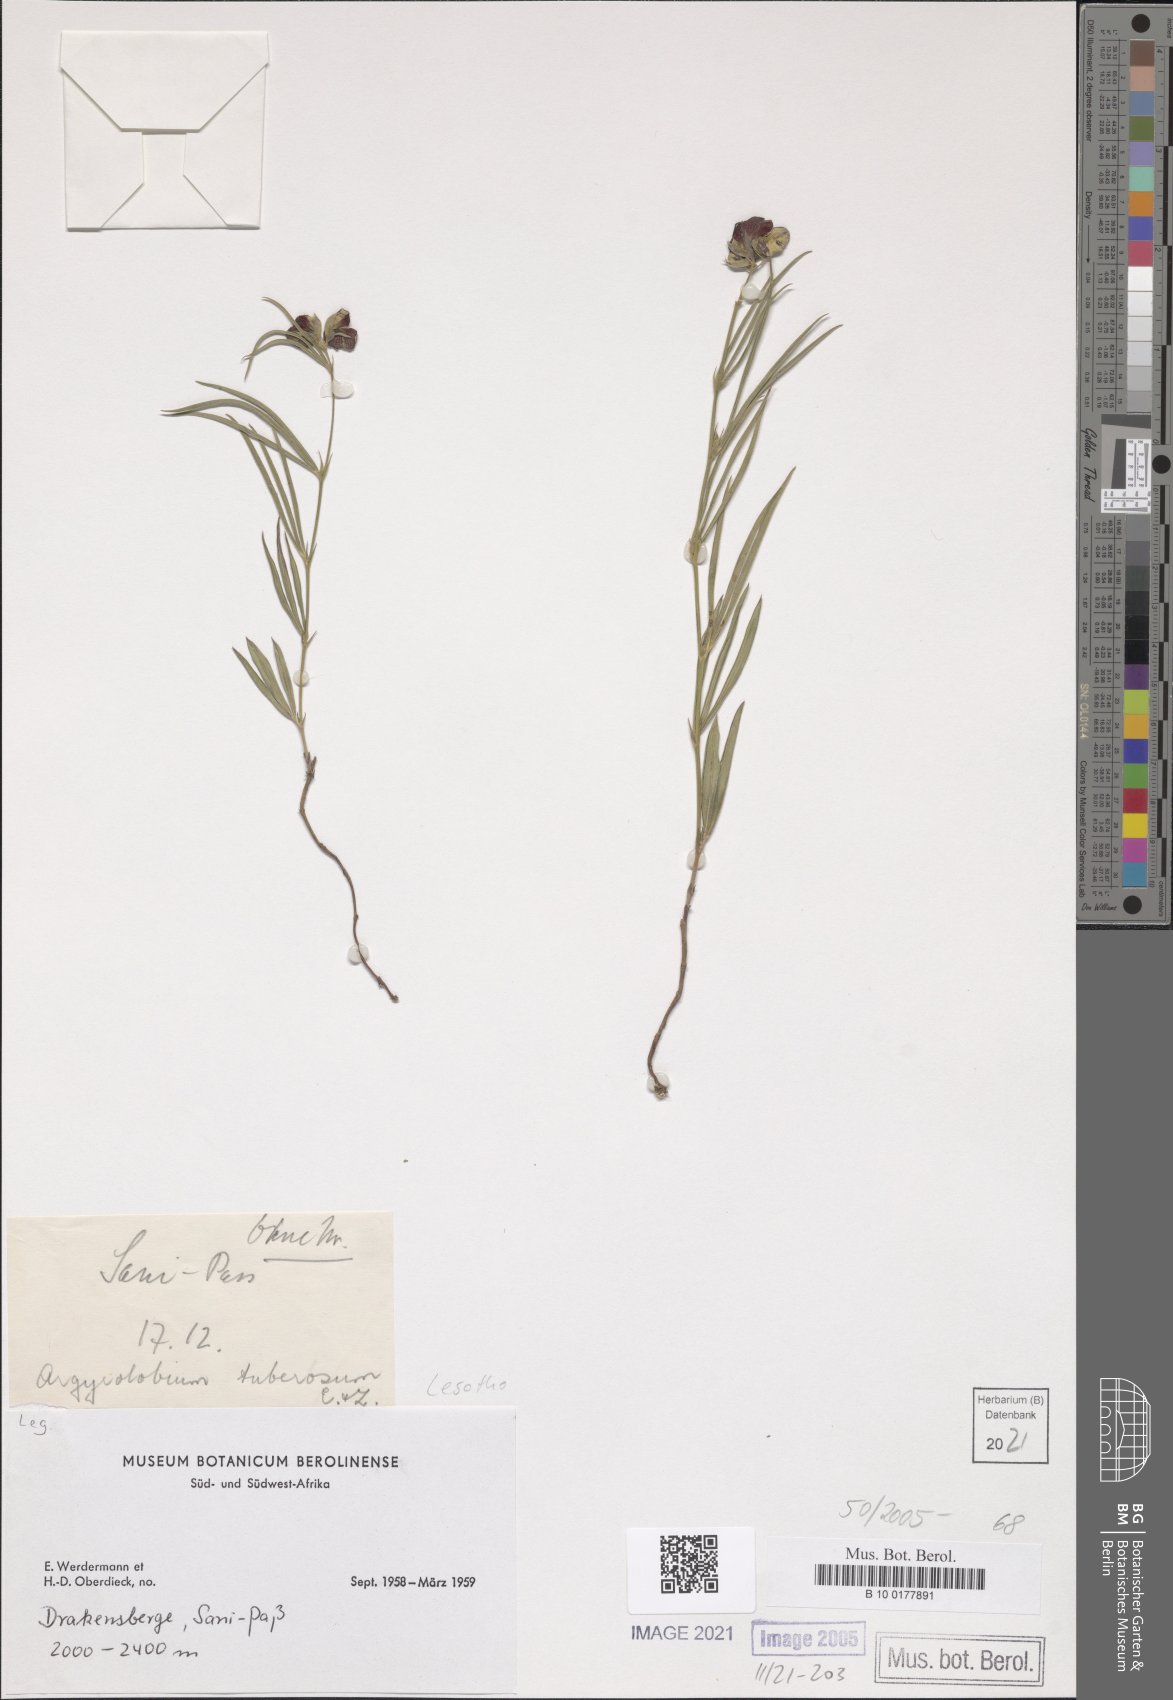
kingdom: Plantae
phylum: Tracheophyta
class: Magnoliopsida
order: Fabales
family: Fabaceae
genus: Argyrolobium
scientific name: Argyrolobium tuberosum
